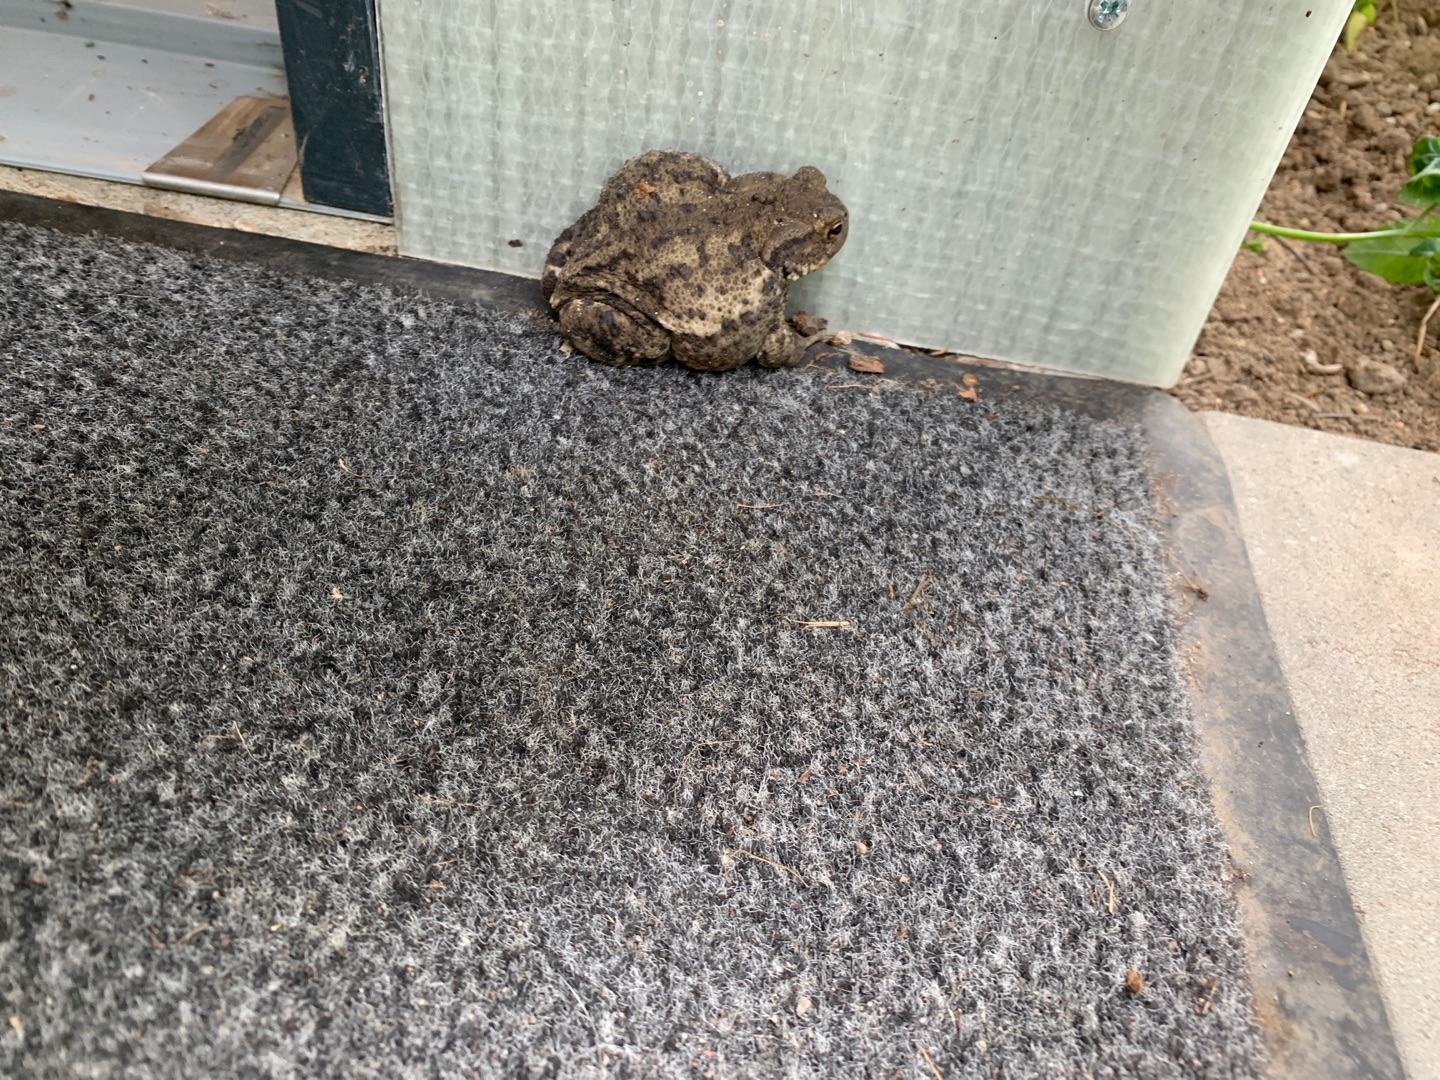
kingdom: Animalia
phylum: Chordata
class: Amphibia
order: Anura
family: Bufonidae
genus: Bufo
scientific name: Bufo bufo
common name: Skrubtudse
